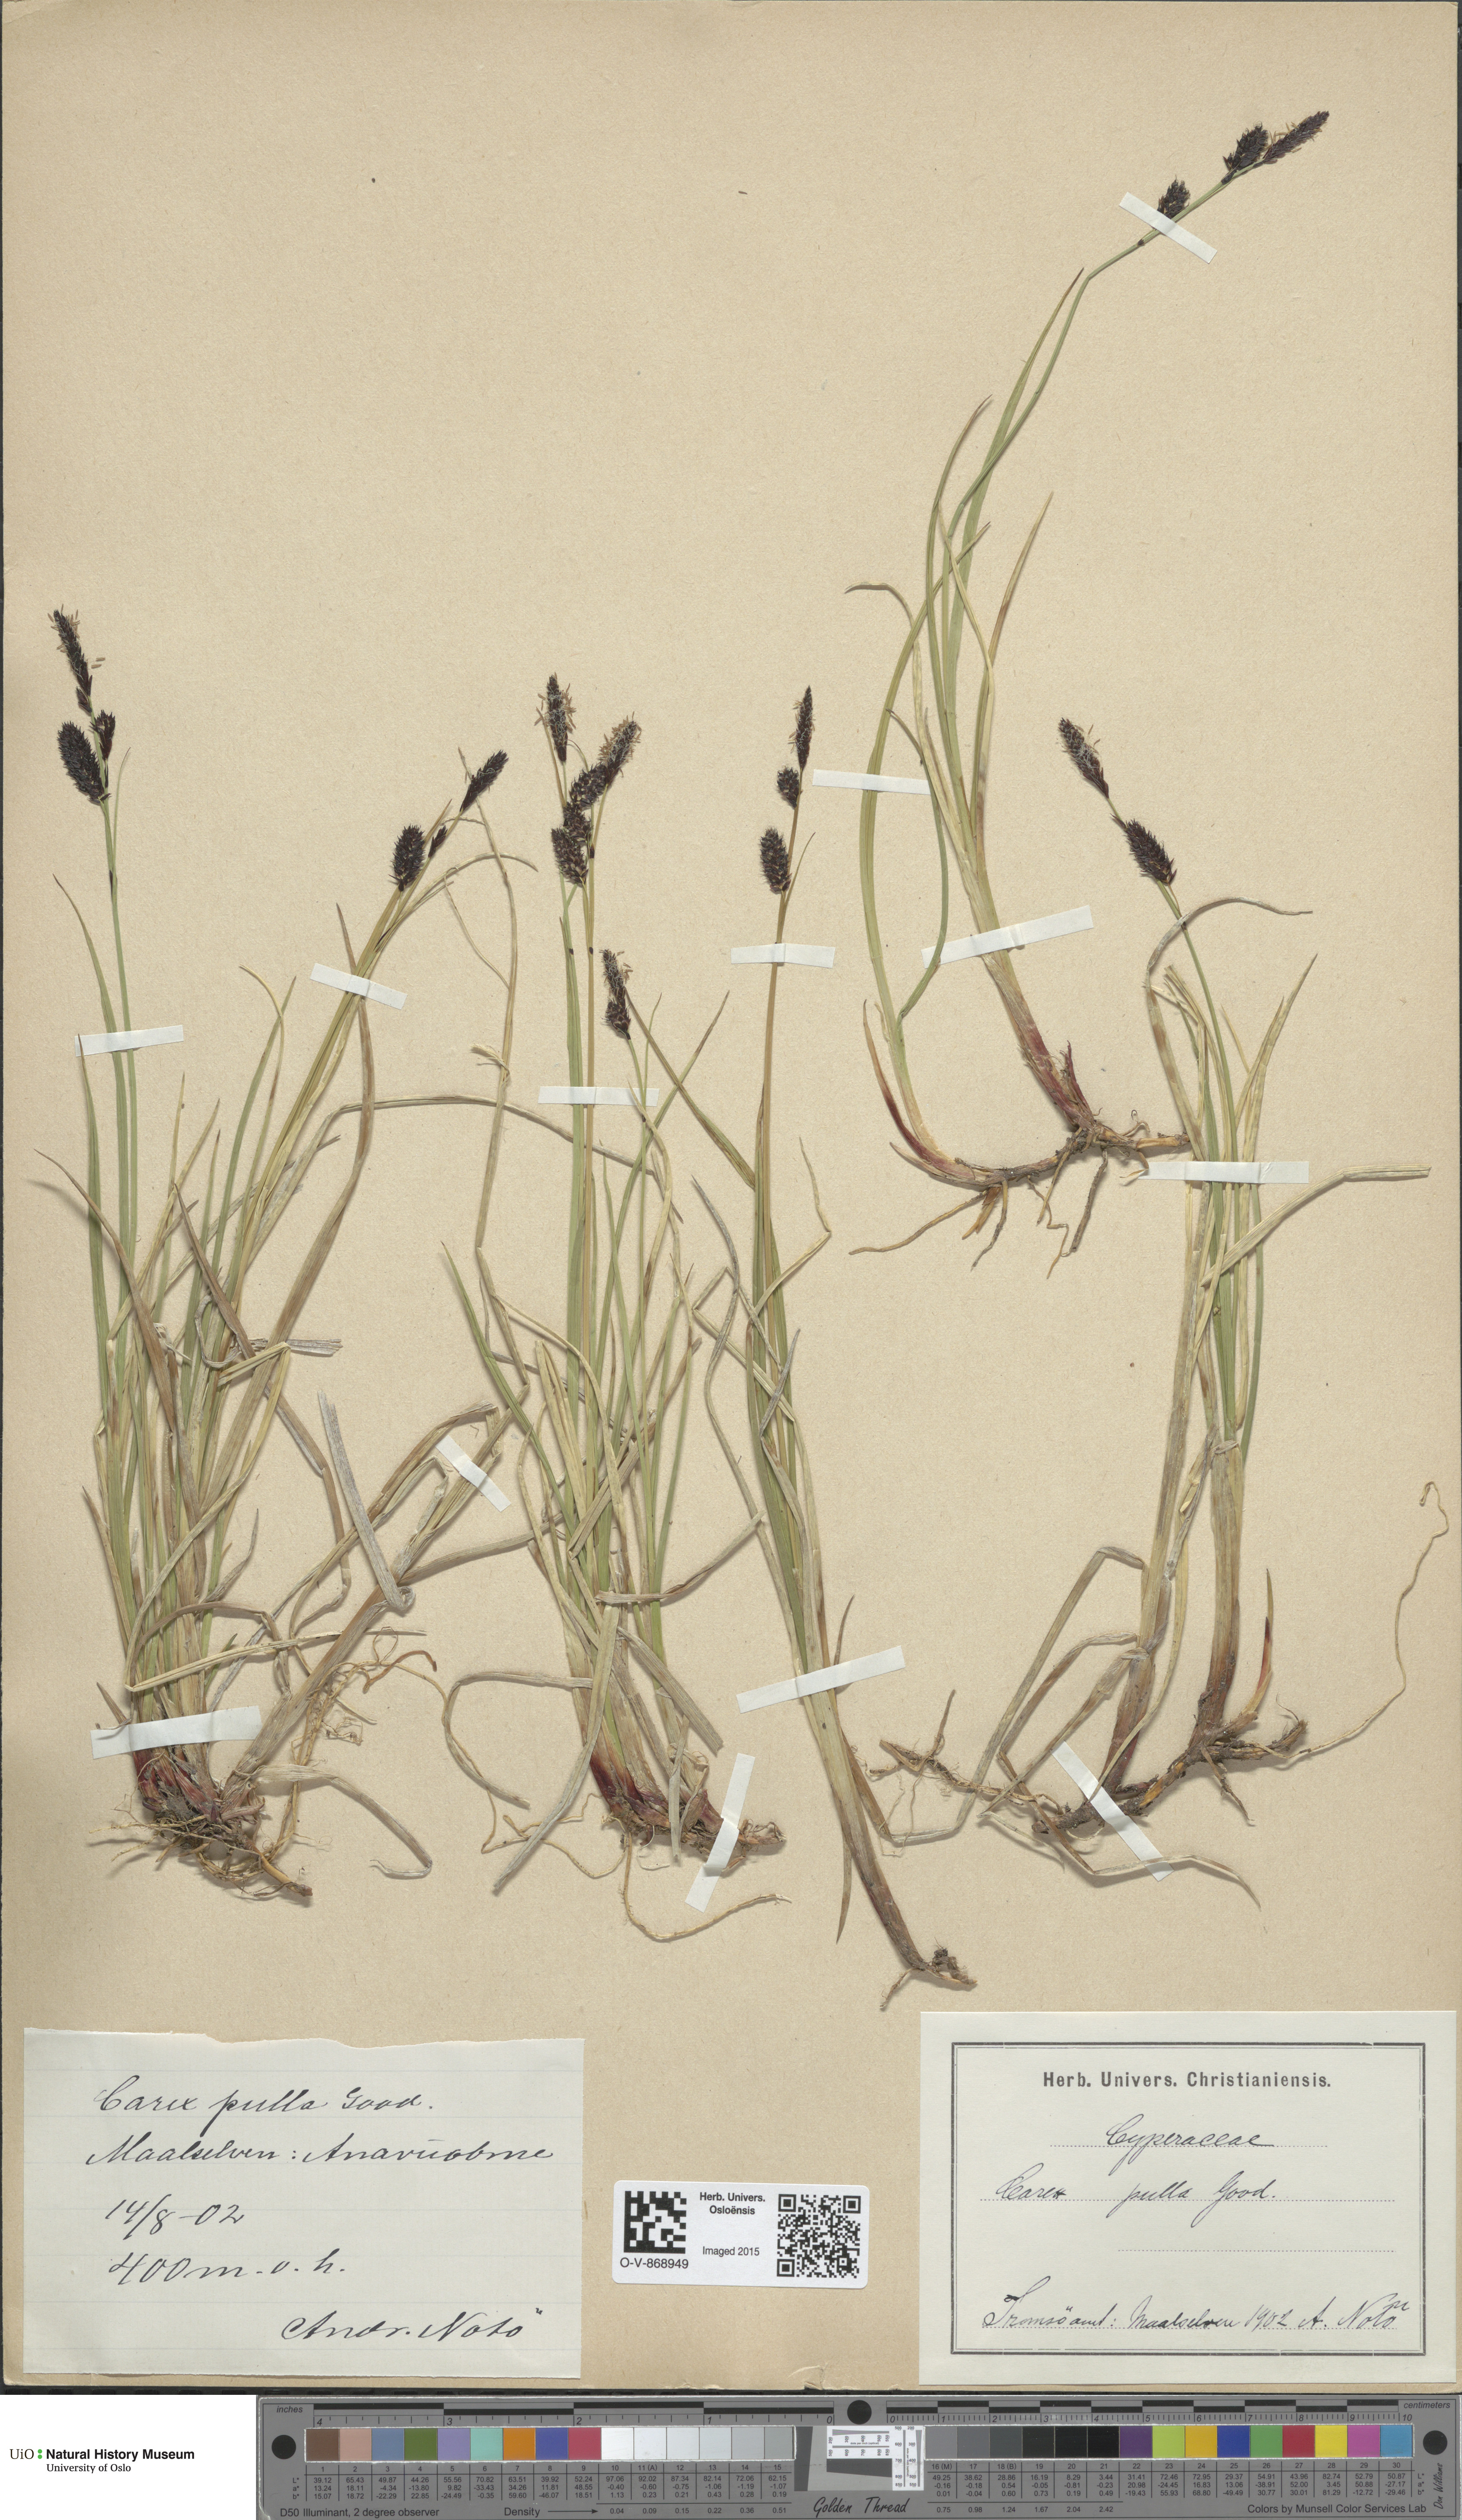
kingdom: Plantae
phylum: Tracheophyta
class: Liliopsida
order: Poales
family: Cyperaceae
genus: Carex
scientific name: Carex saxatilis
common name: Russet sedge
